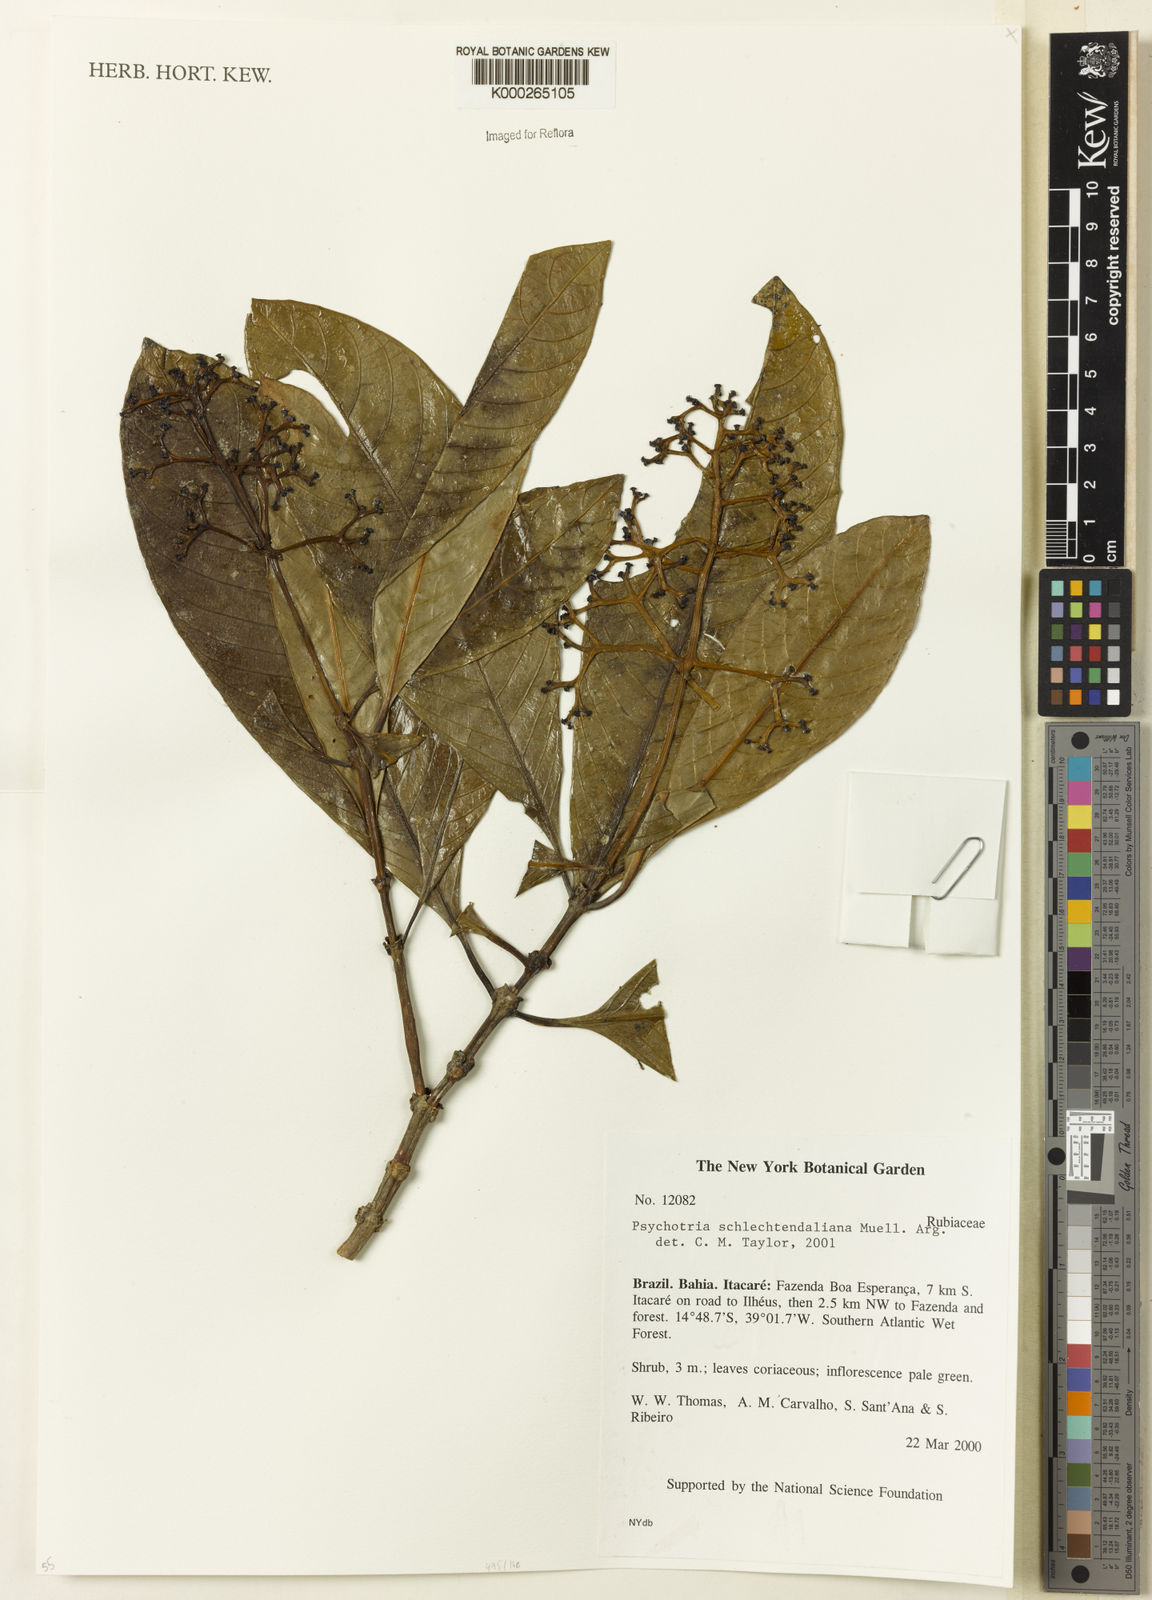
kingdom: Plantae
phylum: Tracheophyta
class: Magnoliopsida
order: Gentianales
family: Rubiaceae
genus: Psychotria
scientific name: Psychotria
